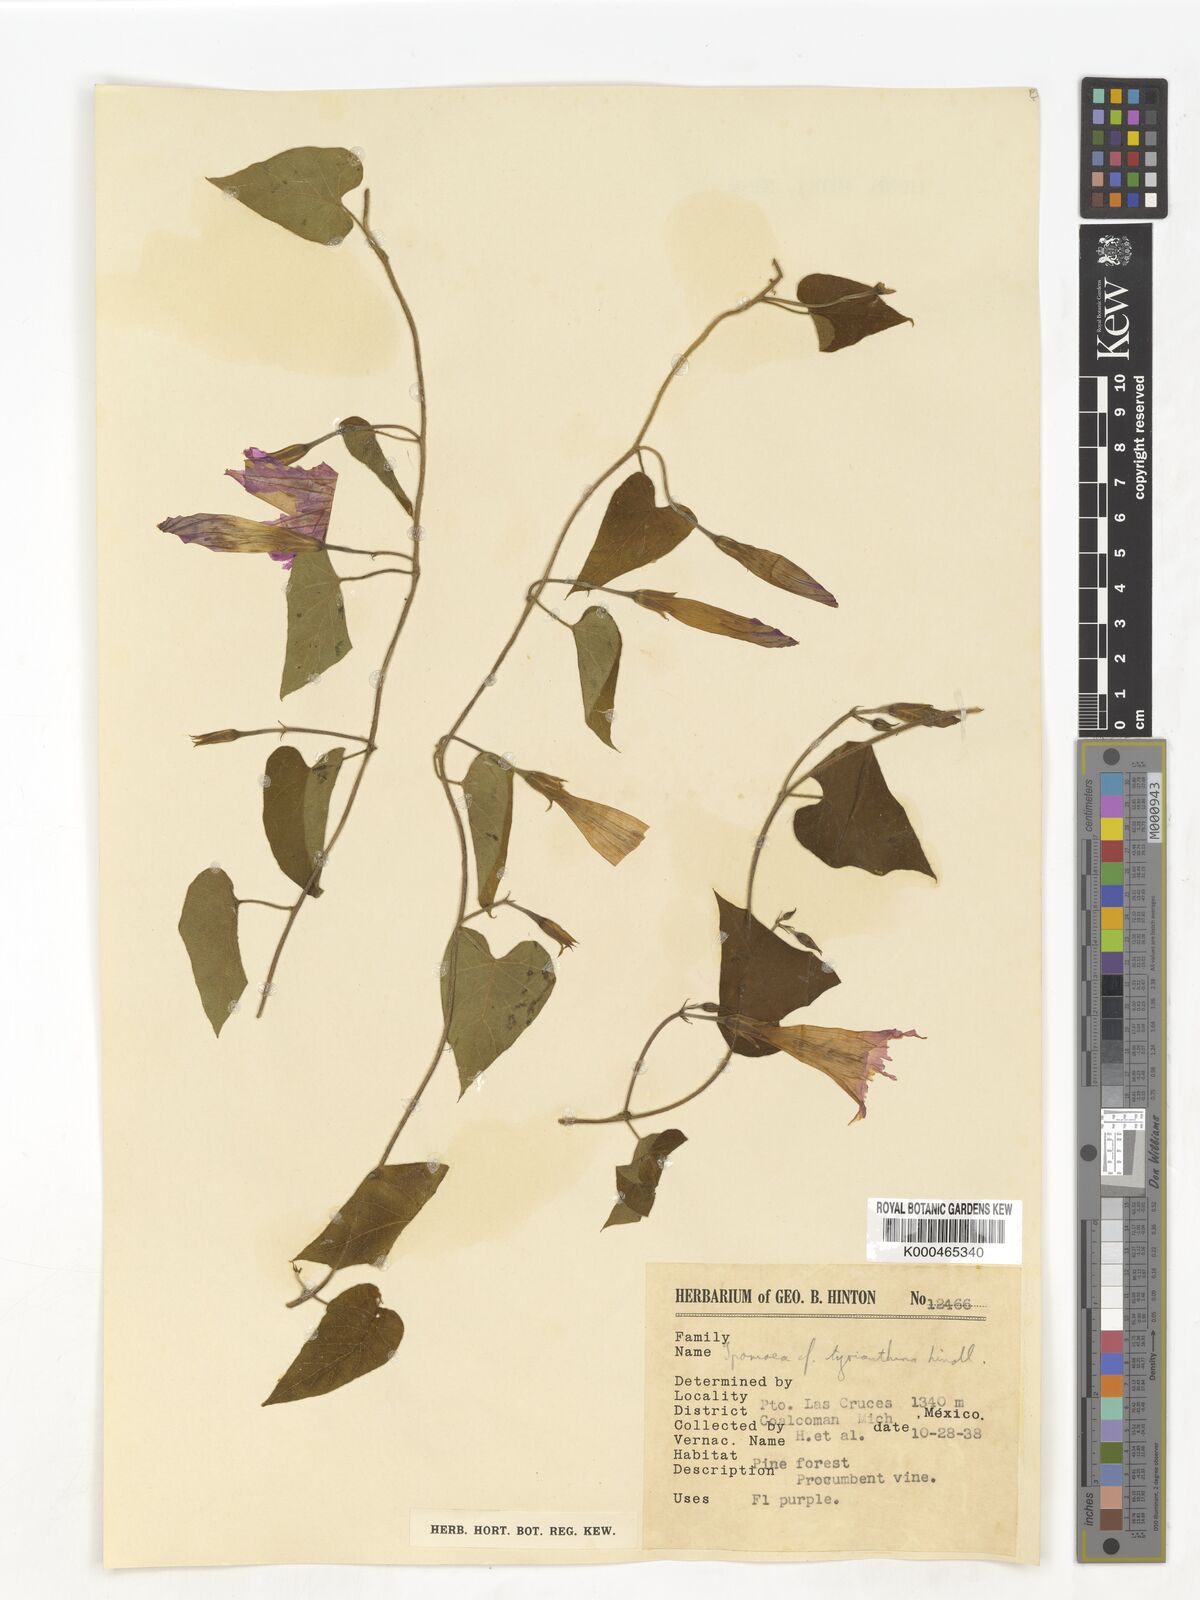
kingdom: Plantae
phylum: Tracheophyta
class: Magnoliopsida
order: Solanales
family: Convolvulaceae
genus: Ipomoea
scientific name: Ipomoea orizabensis
